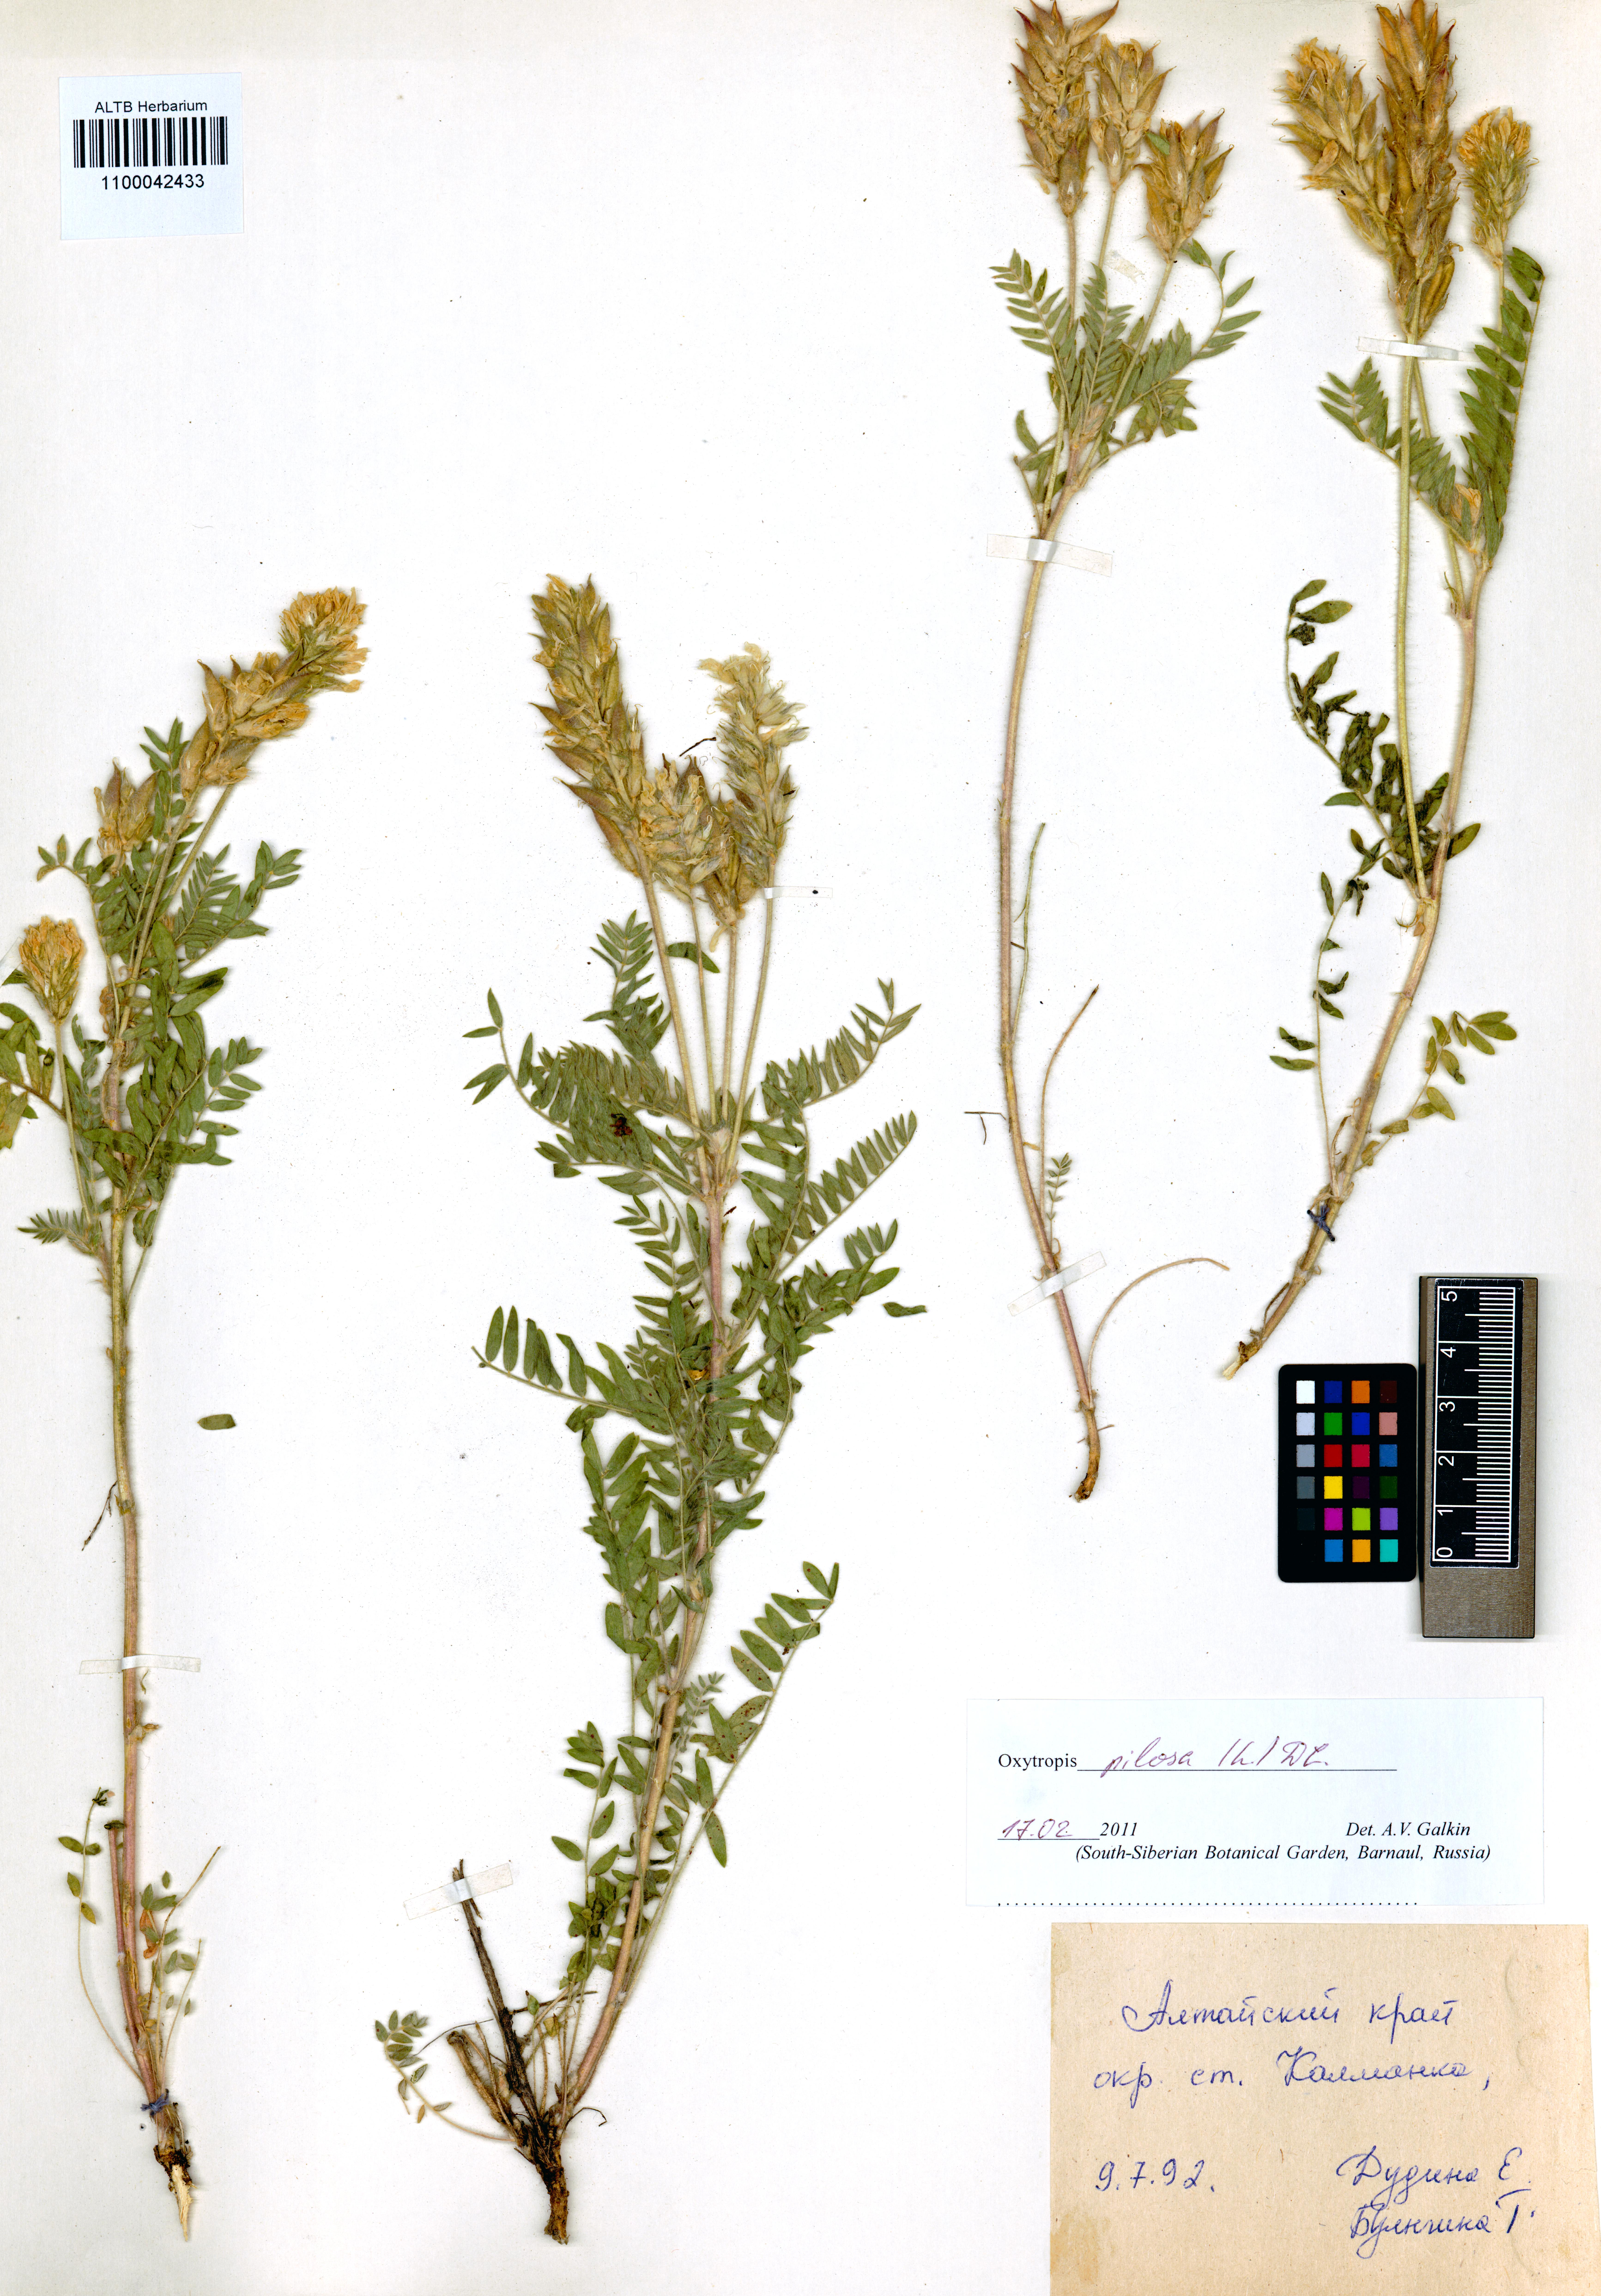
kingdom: Plantae
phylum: Tracheophyta
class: Magnoliopsida
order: Fabales
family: Fabaceae
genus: Oxytropis
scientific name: Oxytropis pilosa
